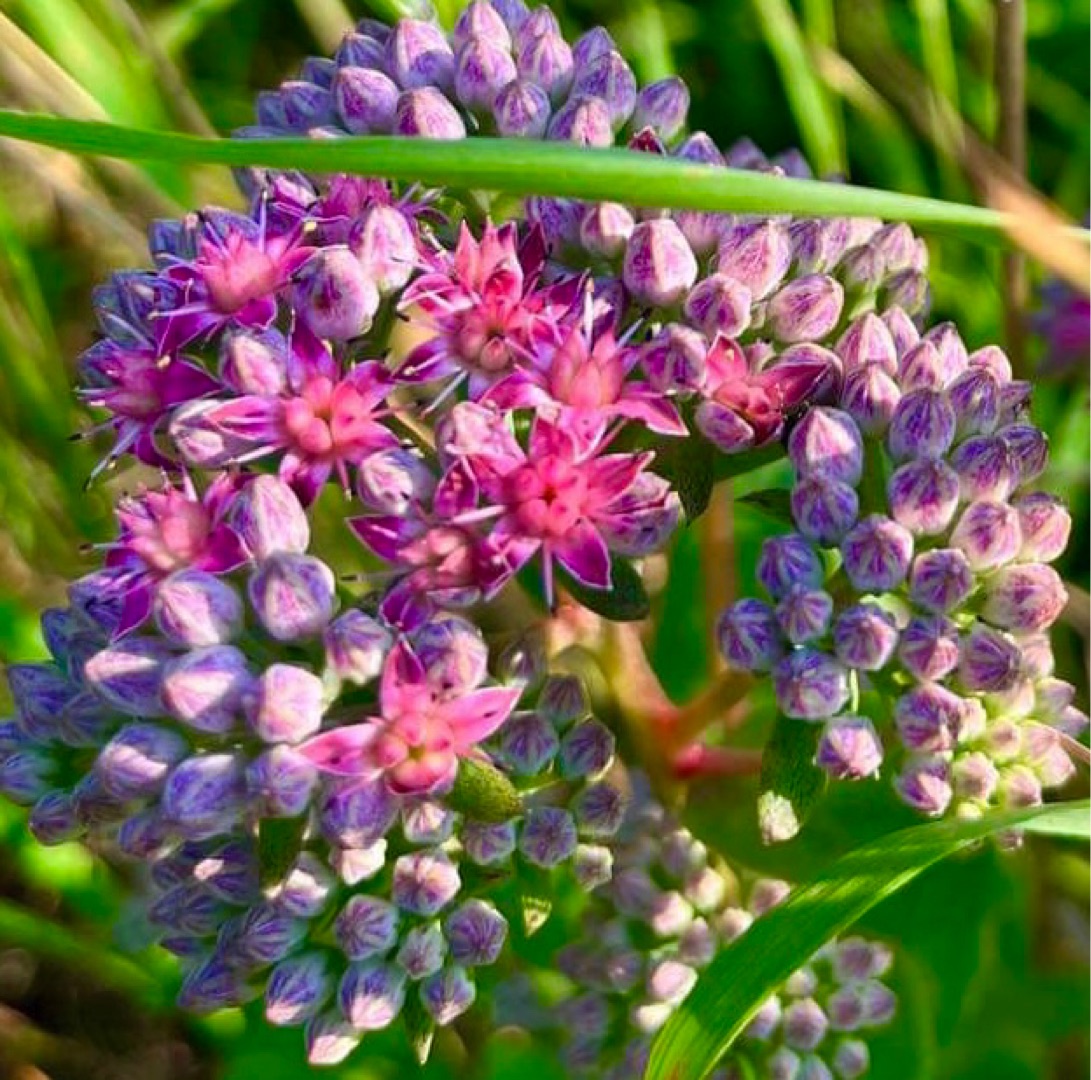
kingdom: Plantae
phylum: Tracheophyta
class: Magnoliopsida
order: Saxifragales
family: Crassulaceae
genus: Hylotelephium
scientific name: Hylotelephium telephium
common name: Sankthansurt
